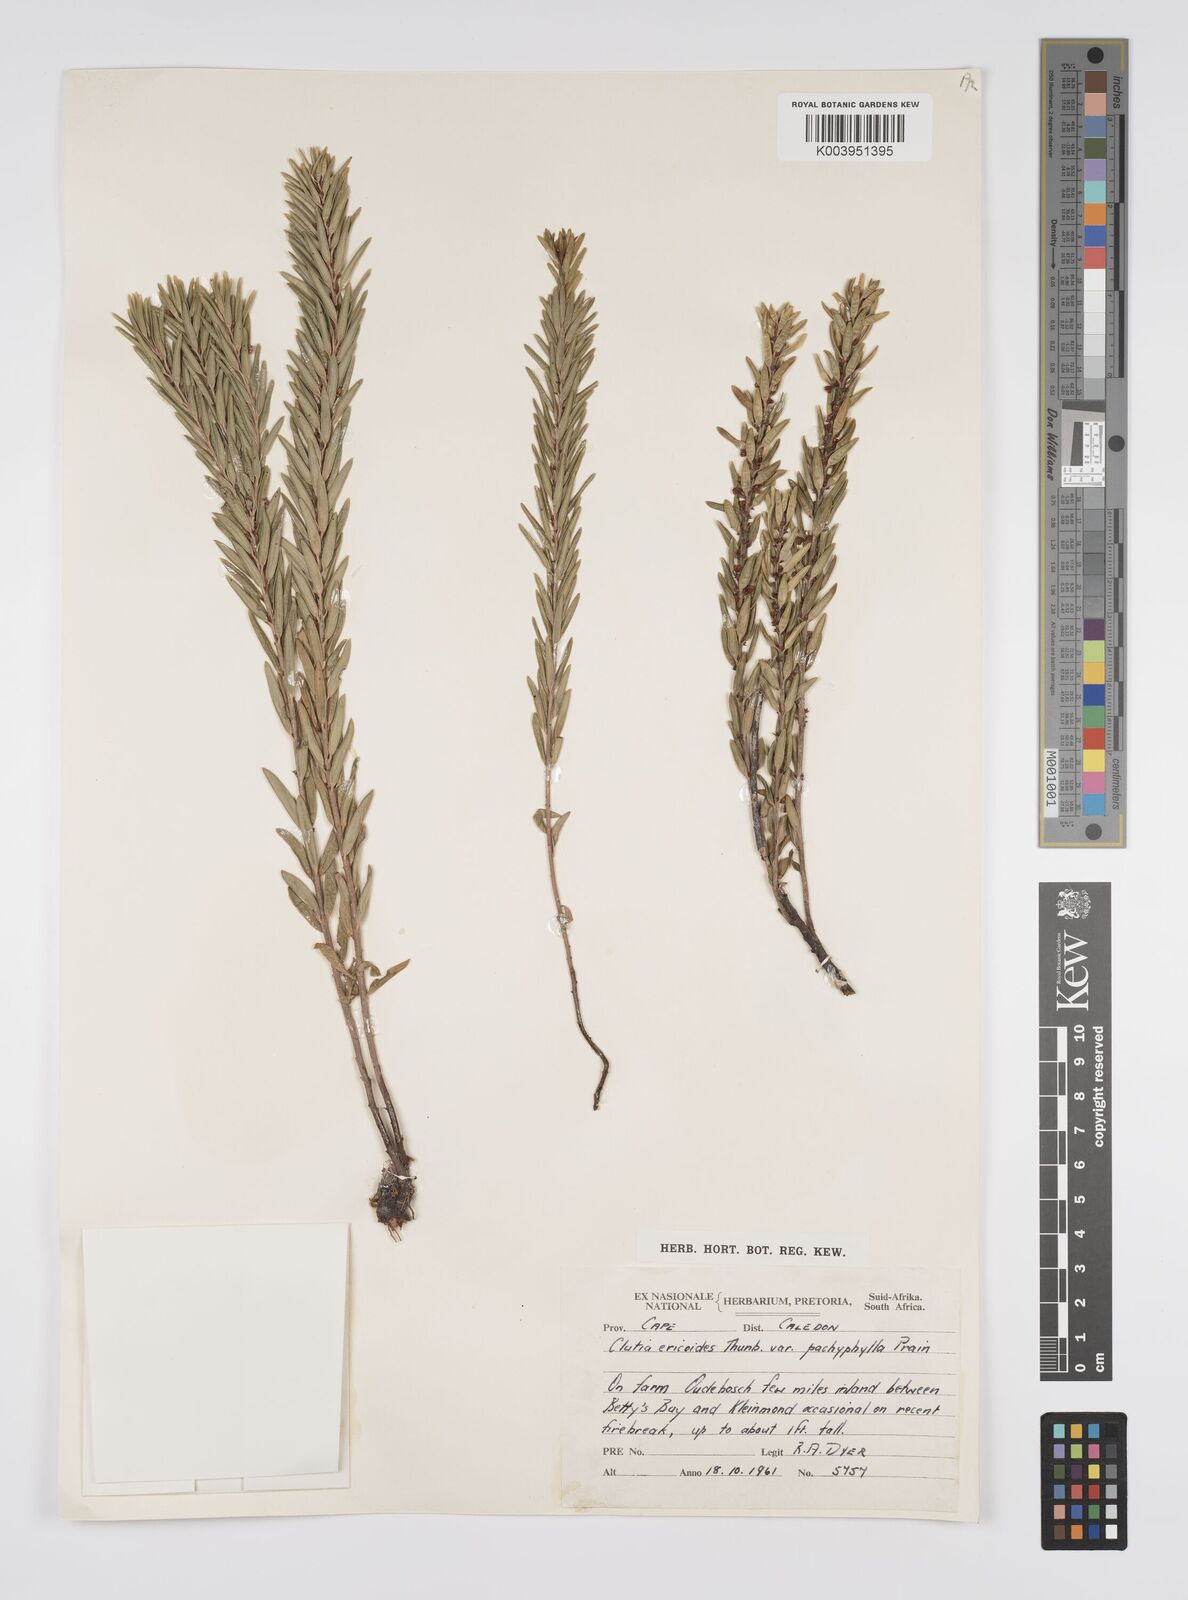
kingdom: Plantae
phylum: Tracheophyta
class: Magnoliopsida
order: Malpighiales
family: Peraceae
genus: Clutia
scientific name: Clutia
